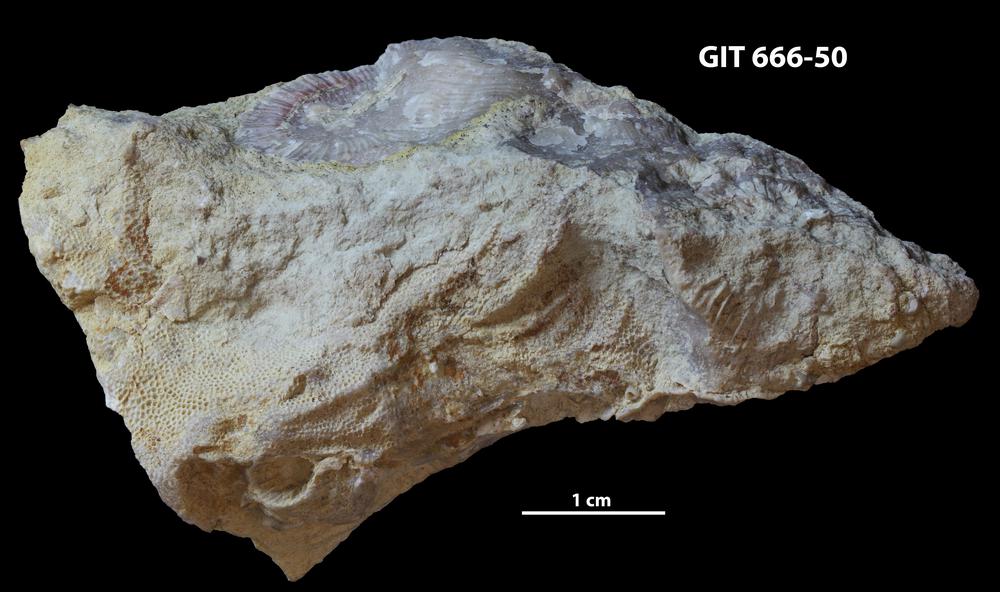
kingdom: Animalia
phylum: Bryozoa
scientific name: Bryozoa
